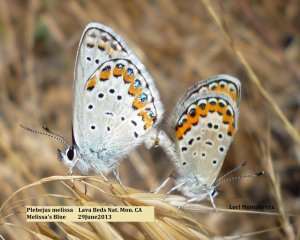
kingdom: Animalia
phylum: Arthropoda
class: Insecta
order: Lepidoptera
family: Lycaenidae
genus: Lycaeides
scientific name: Lycaeides melissa
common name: Melissa Blue
